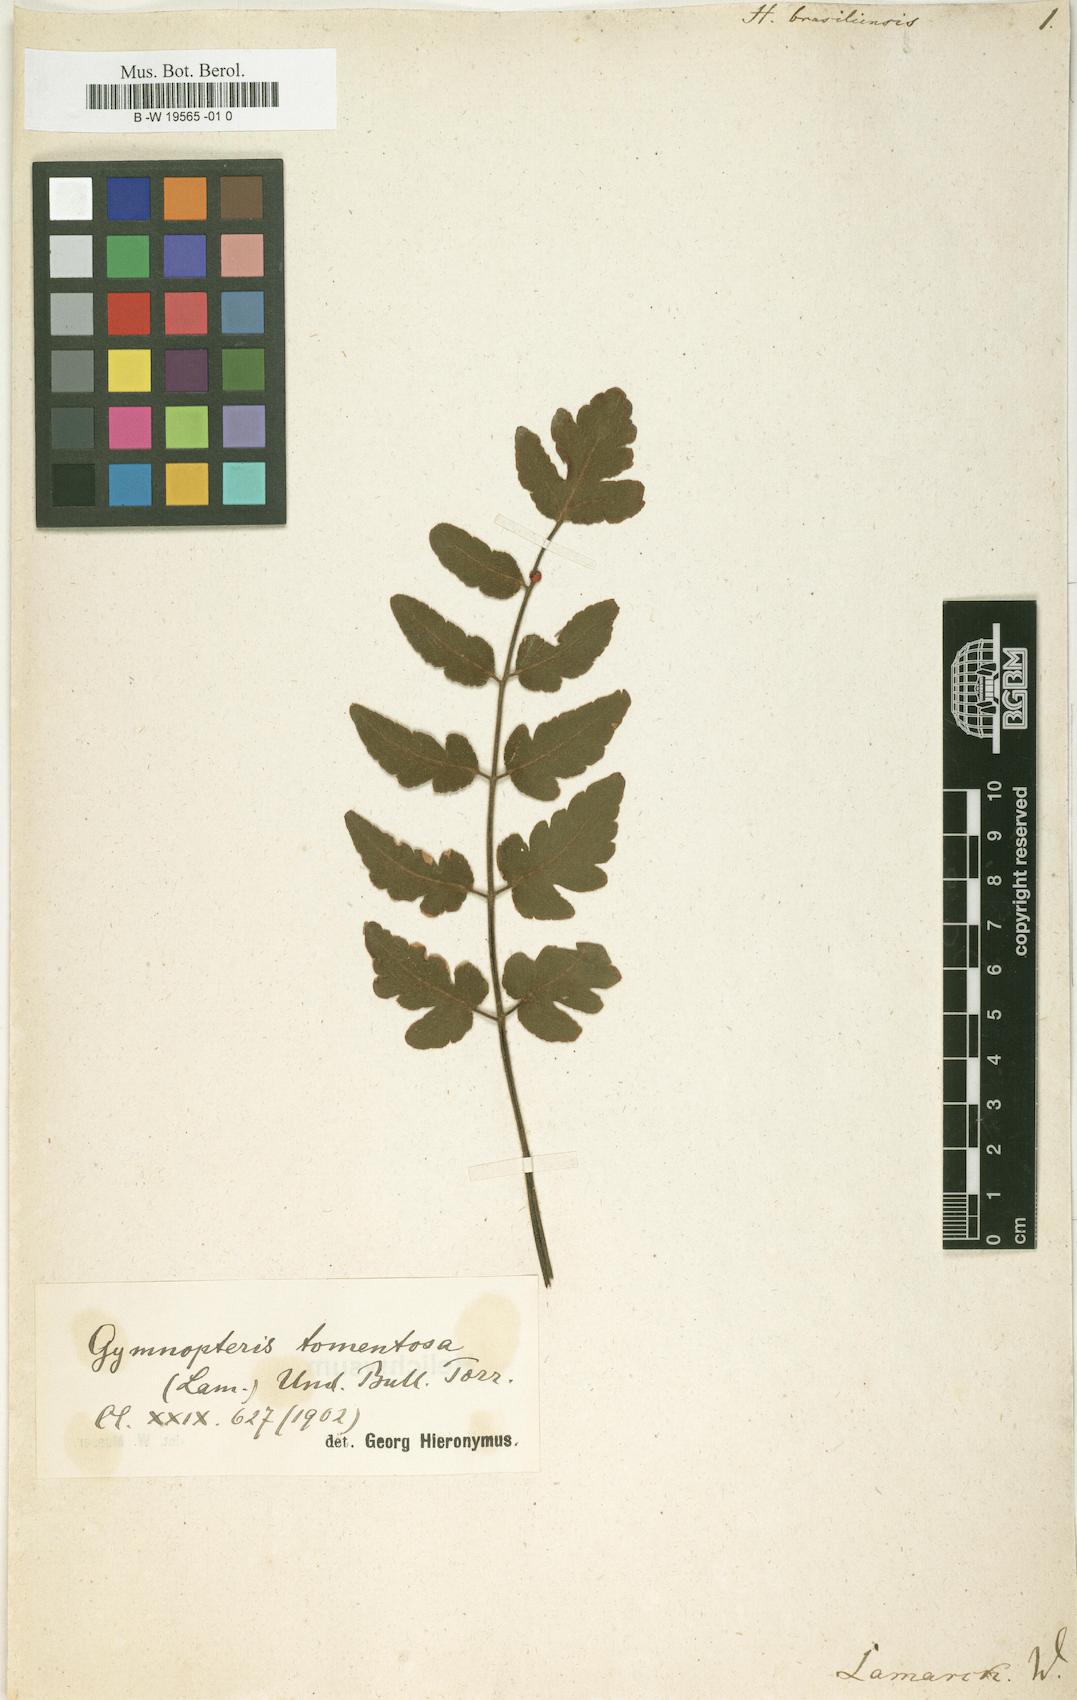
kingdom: Plantae
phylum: Tracheophyta
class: Polypodiopsida
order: Polypodiales
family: Pteridaceae
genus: Ormopteris
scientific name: Ormopteris riedelii
